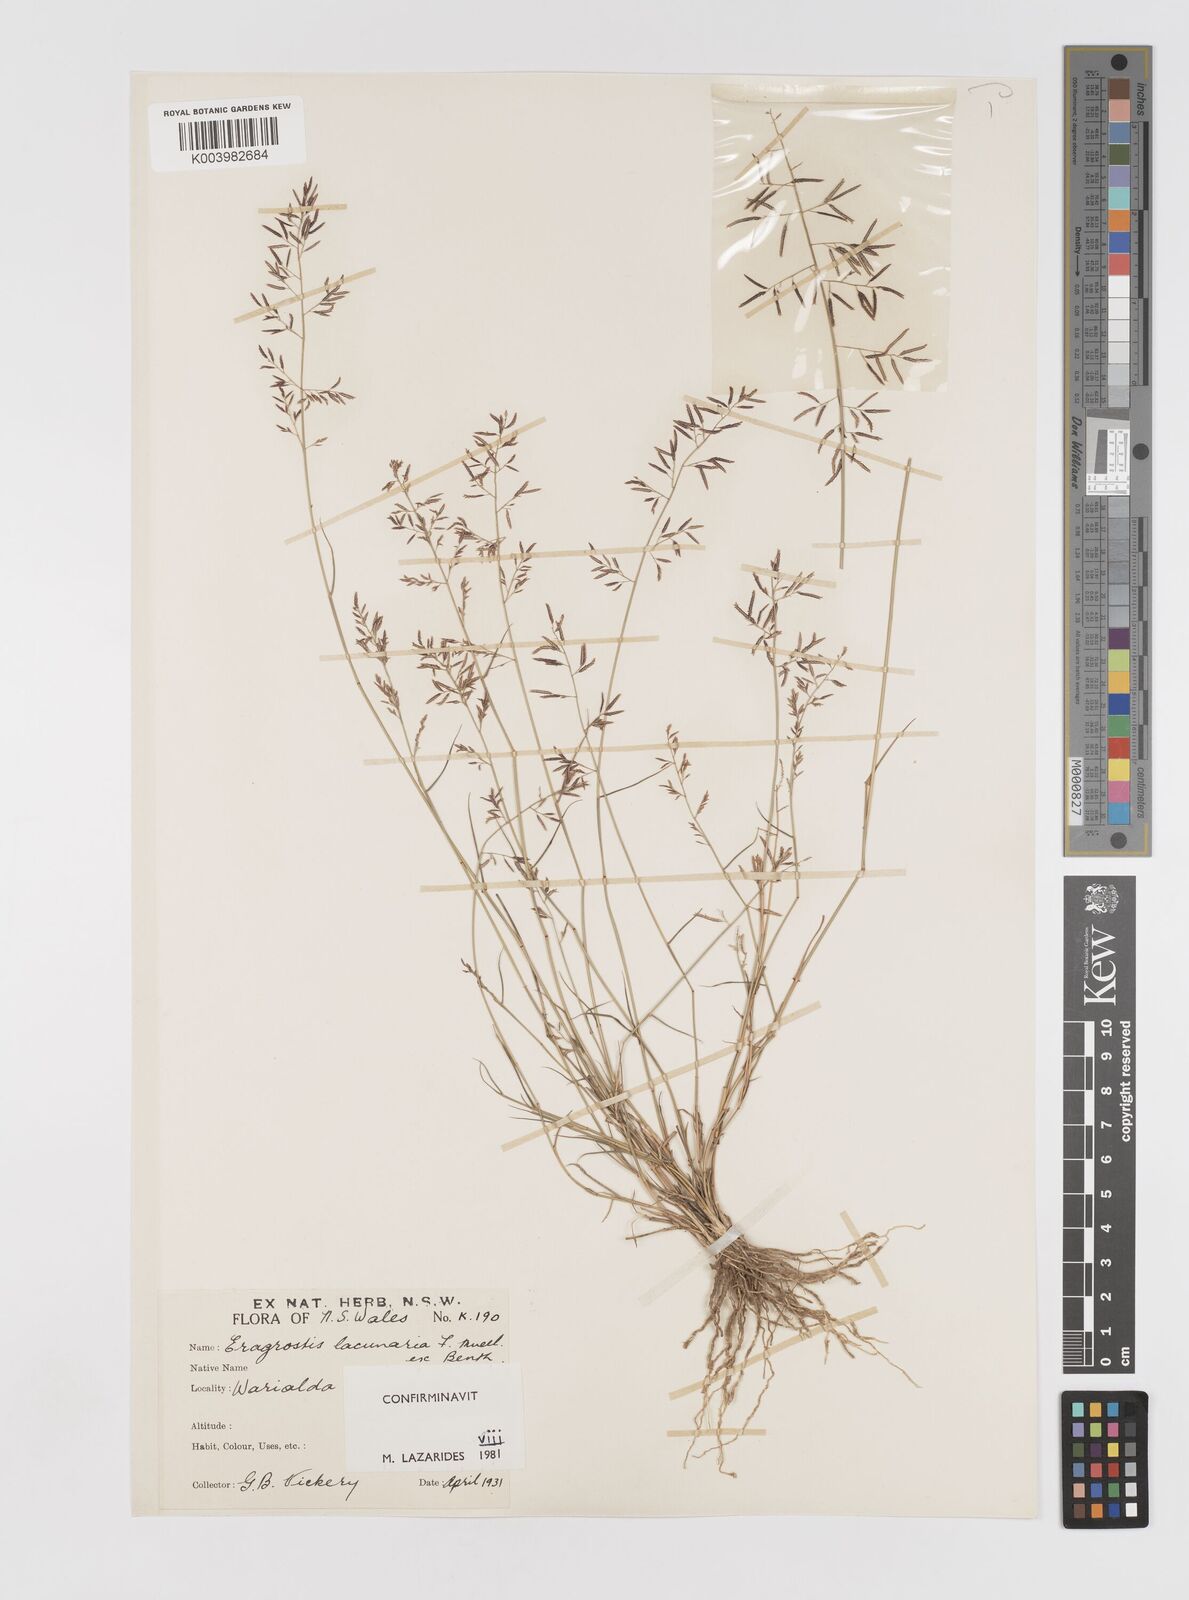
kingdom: Plantae
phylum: Tracheophyta
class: Liliopsida
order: Poales
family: Poaceae
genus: Eragrostis
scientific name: Eragrostis lacunaria
